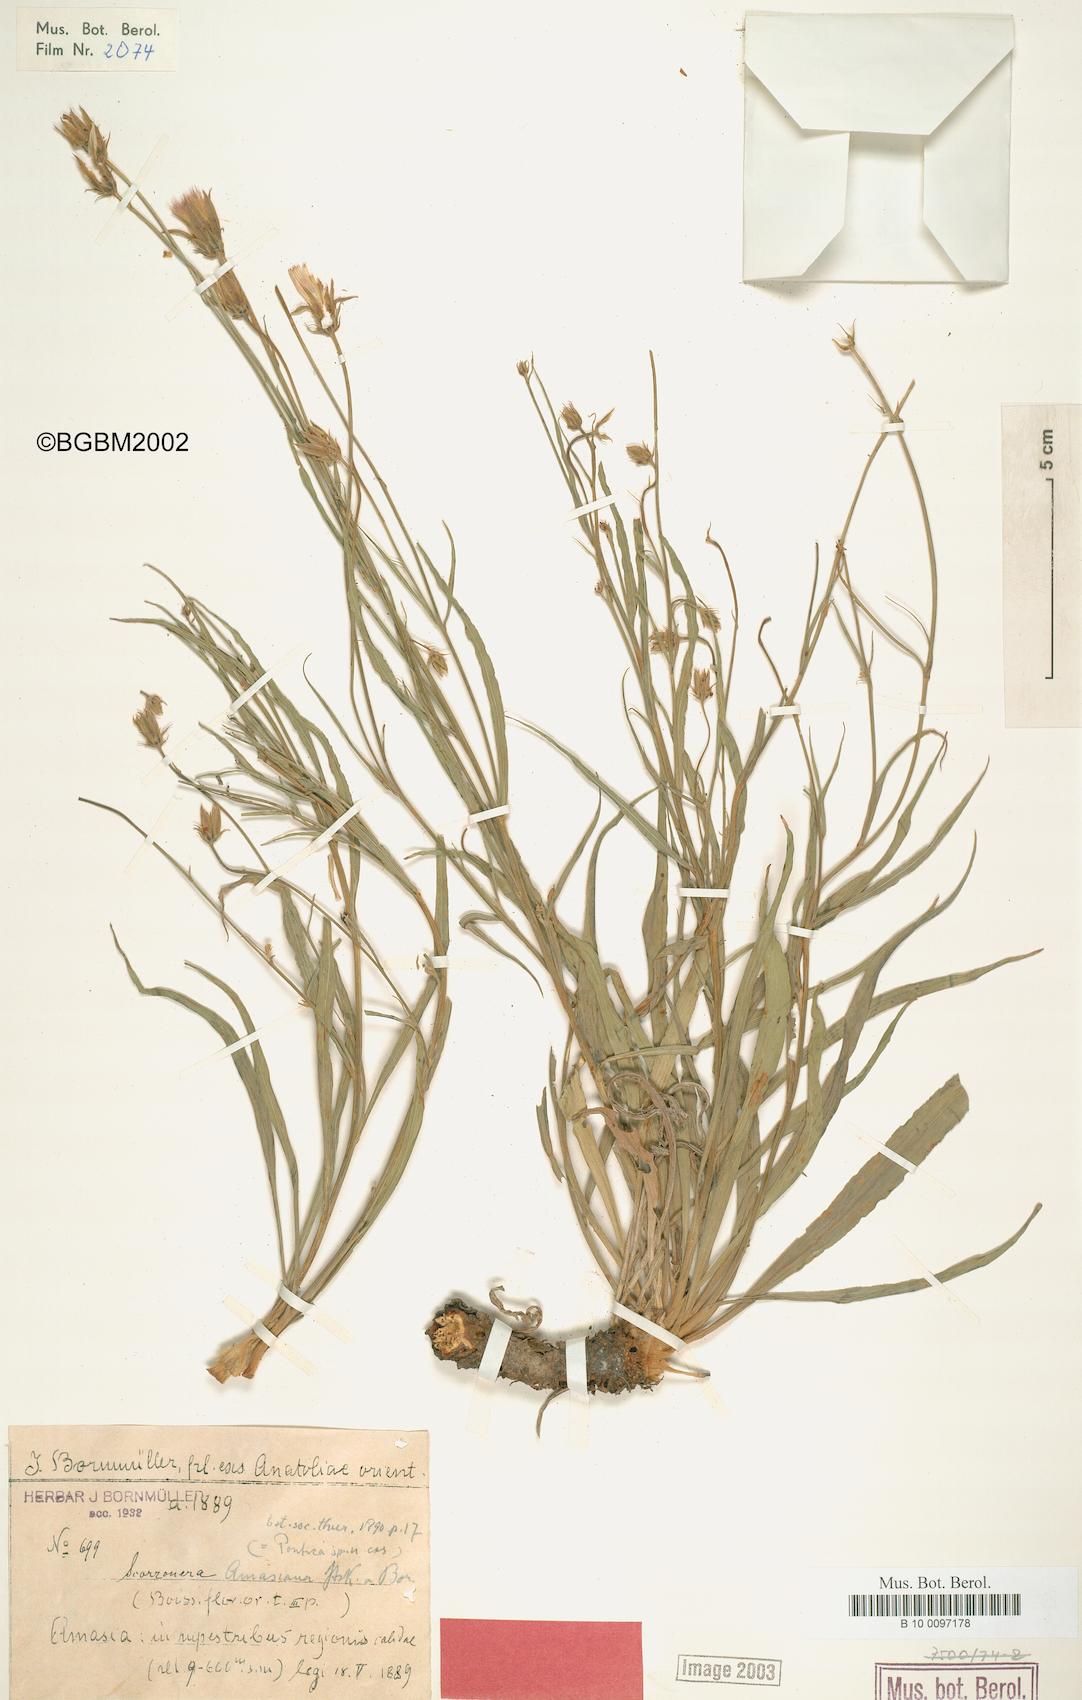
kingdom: Plantae
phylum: Tracheophyta
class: Magnoliopsida
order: Asterales
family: Asteraceae
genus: Ramaliella
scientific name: Ramaliella amasiana
